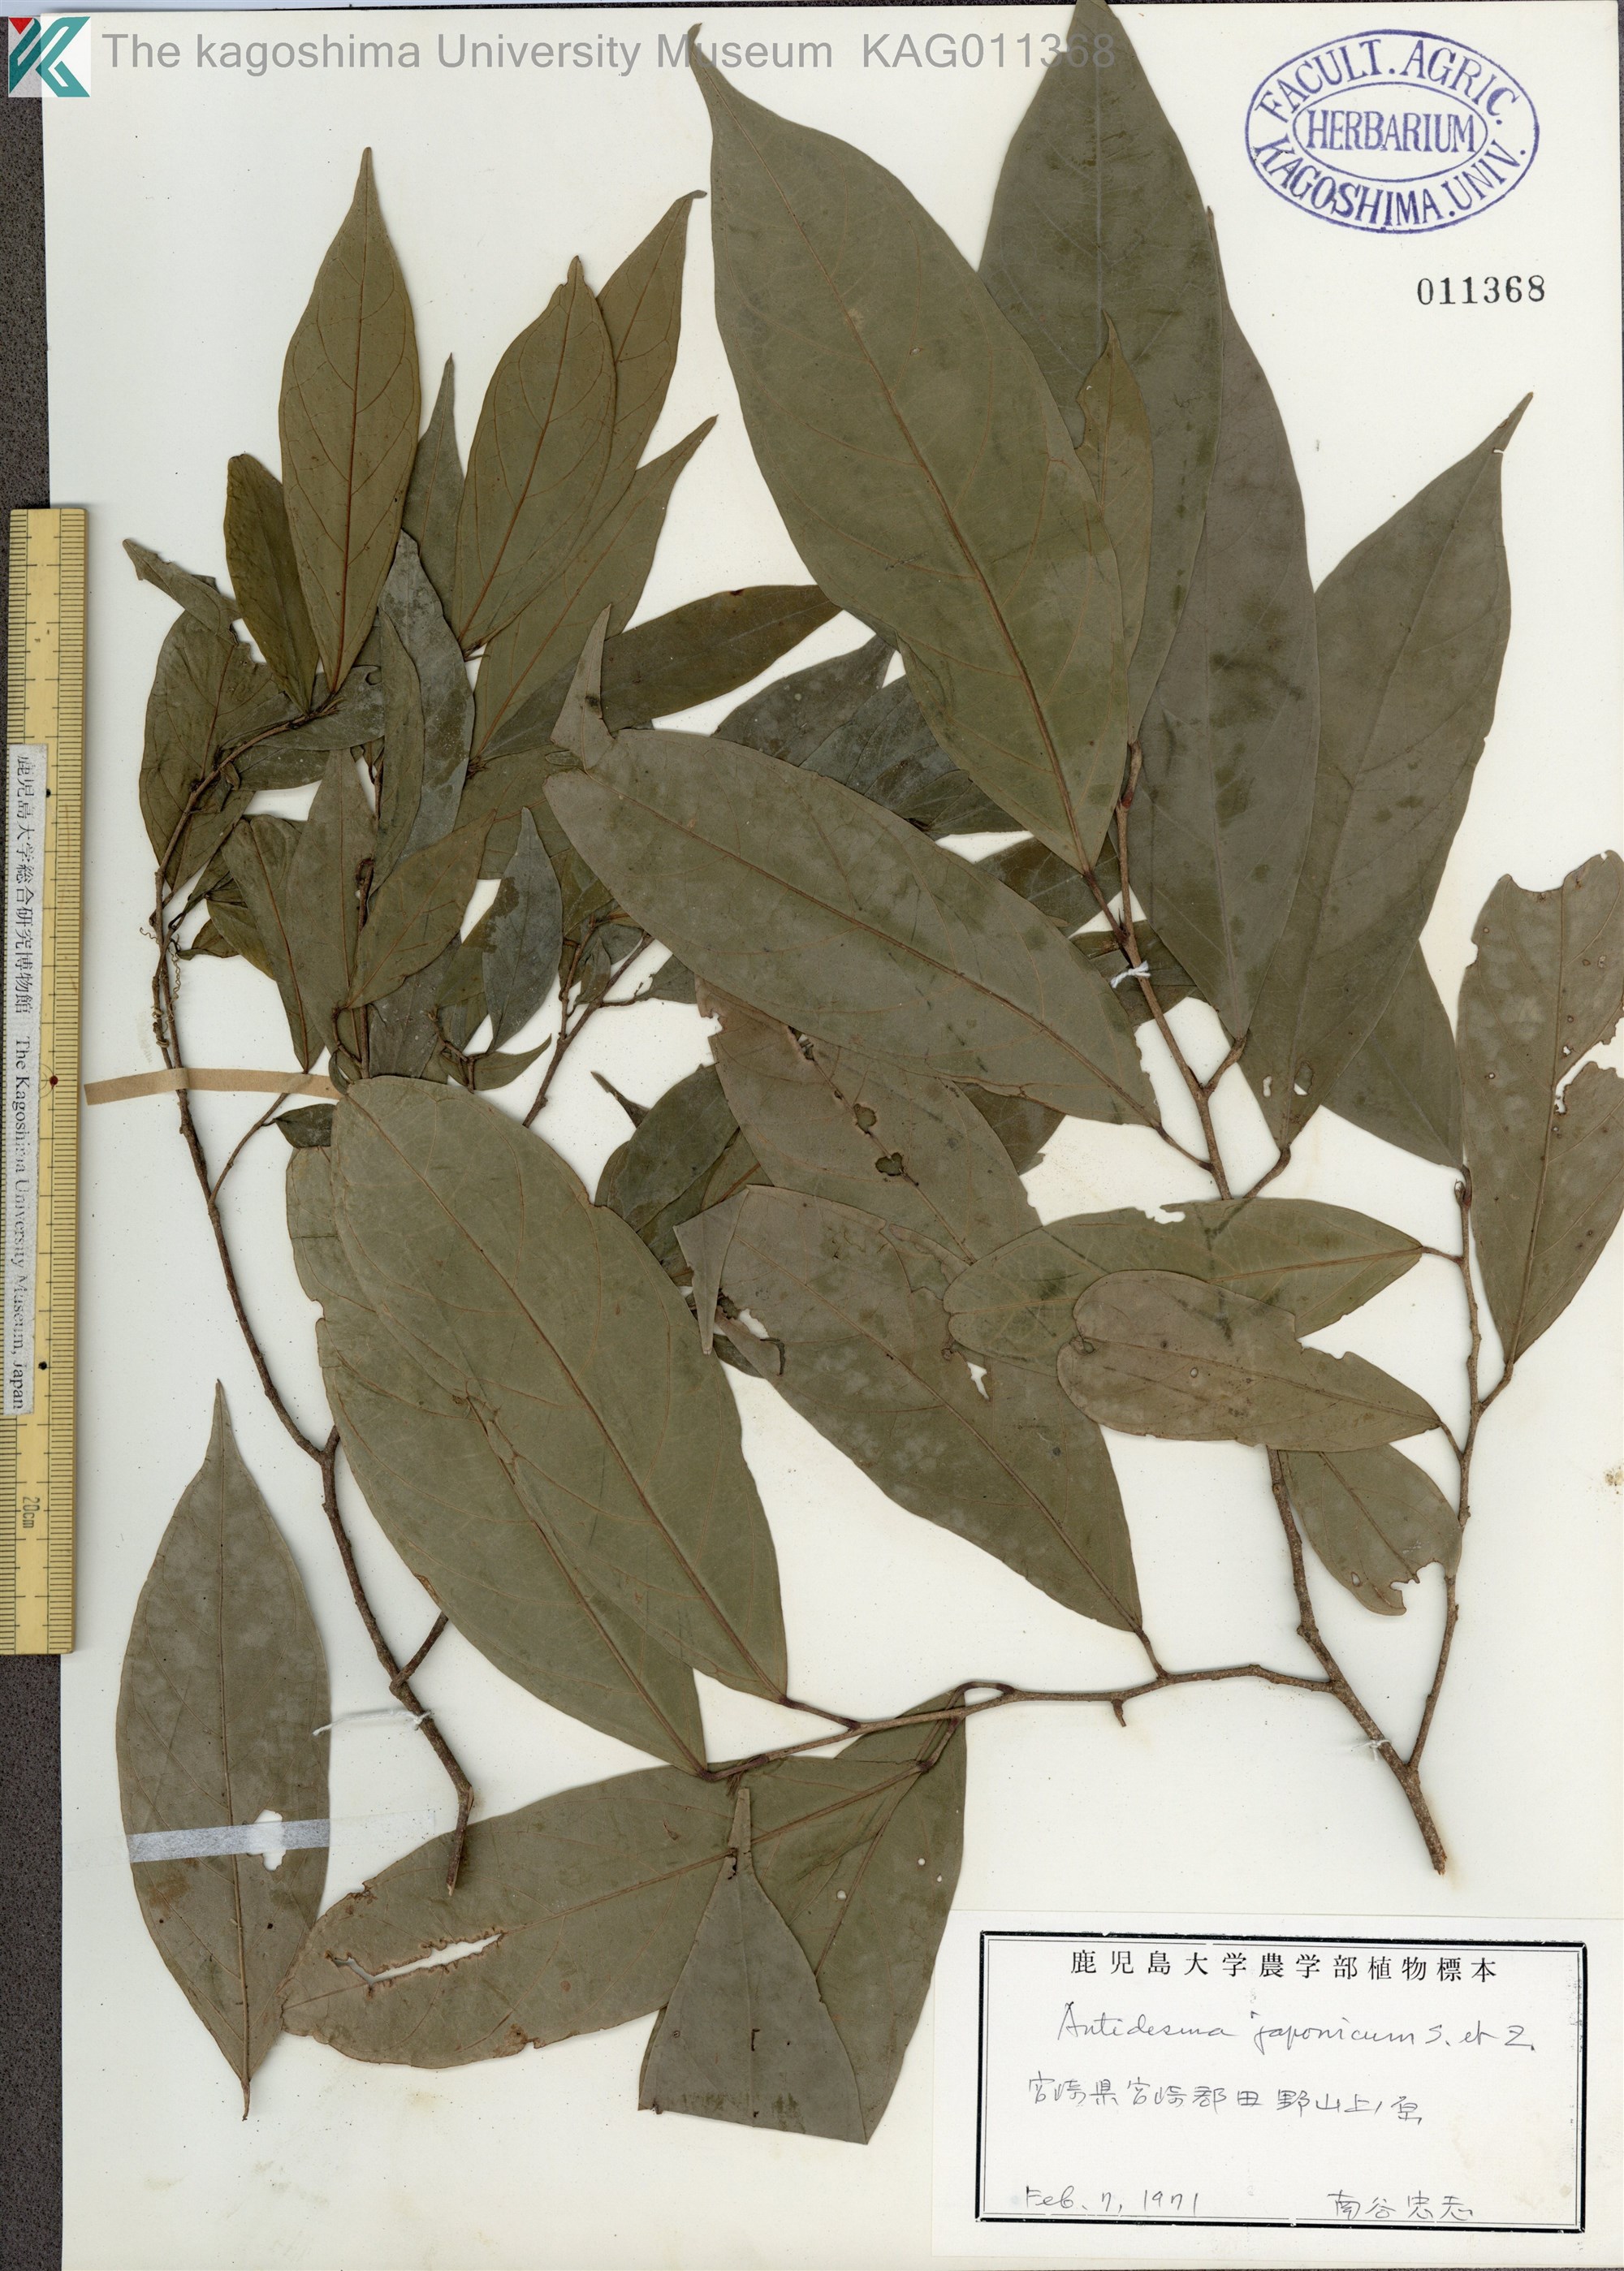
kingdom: Plantae
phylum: Tracheophyta
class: Magnoliopsida
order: Malpighiales
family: Phyllanthaceae
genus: Antidesma
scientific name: Antidesma japonicum
